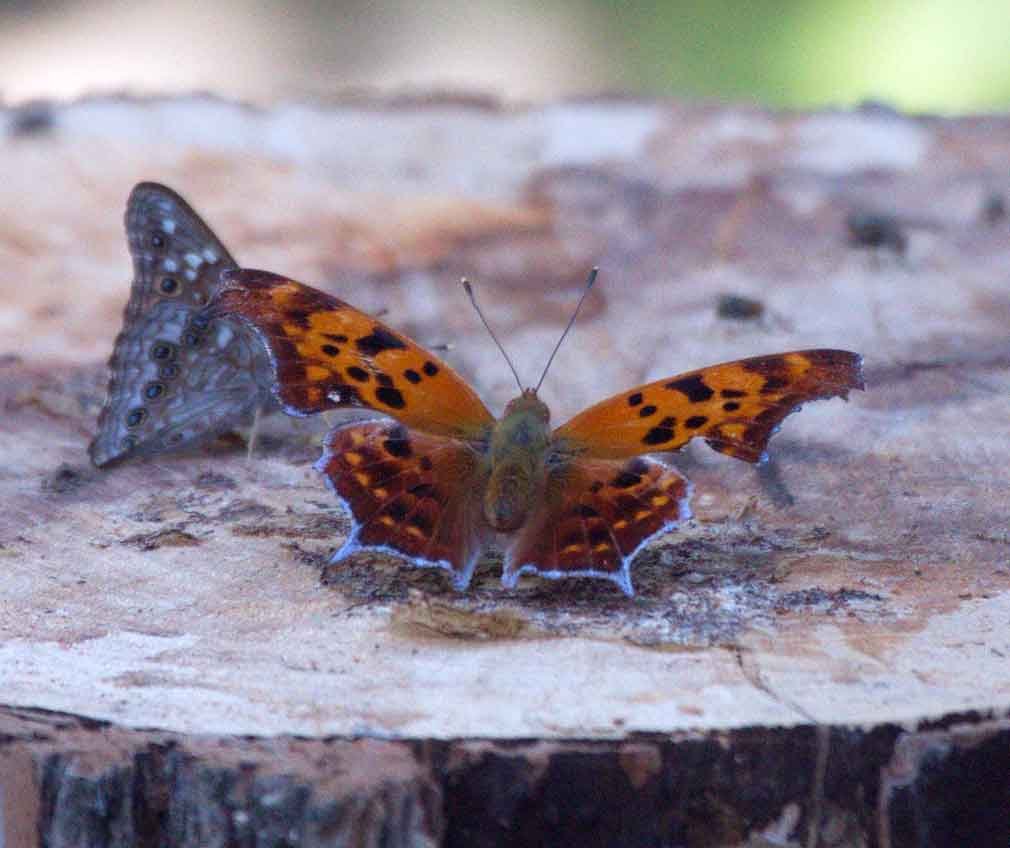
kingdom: Animalia
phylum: Arthropoda
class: Insecta
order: Lepidoptera
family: Nymphalidae
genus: Polygonia
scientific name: Polygonia interrogationis
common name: Question Mark
